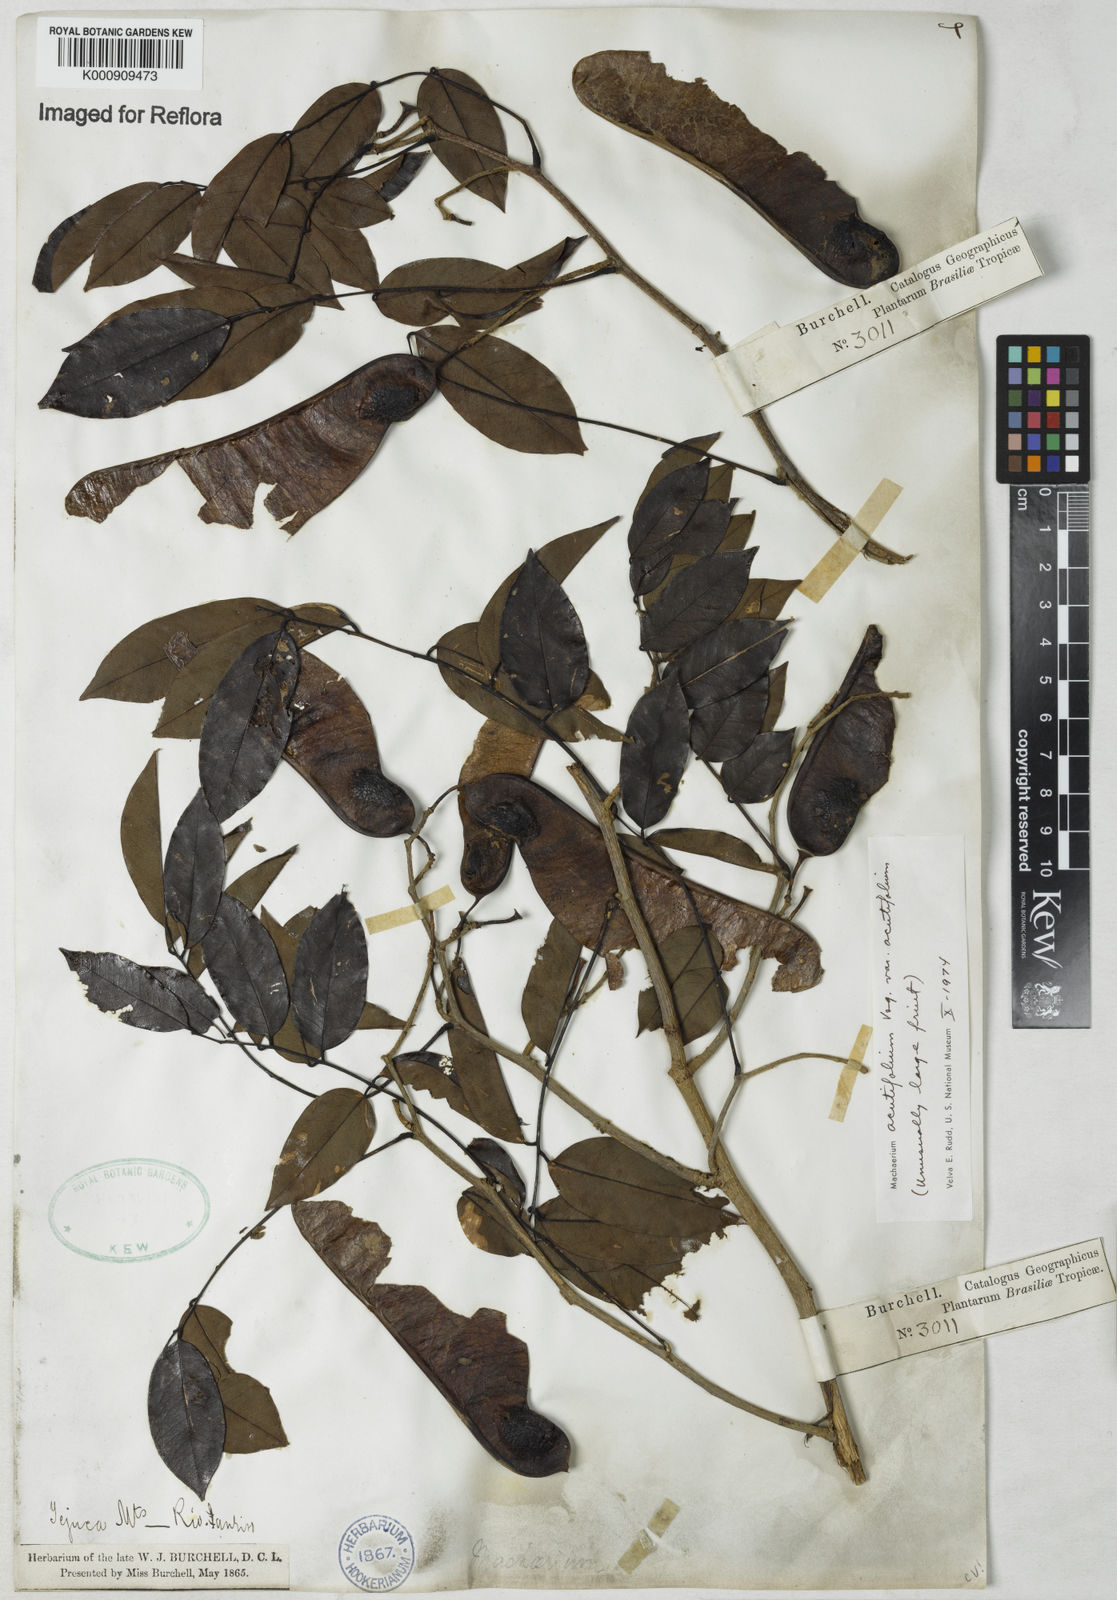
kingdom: Plantae
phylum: Tracheophyta
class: Magnoliopsida
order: Fabales
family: Fabaceae
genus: Machaerium
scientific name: Machaerium acutifolium
